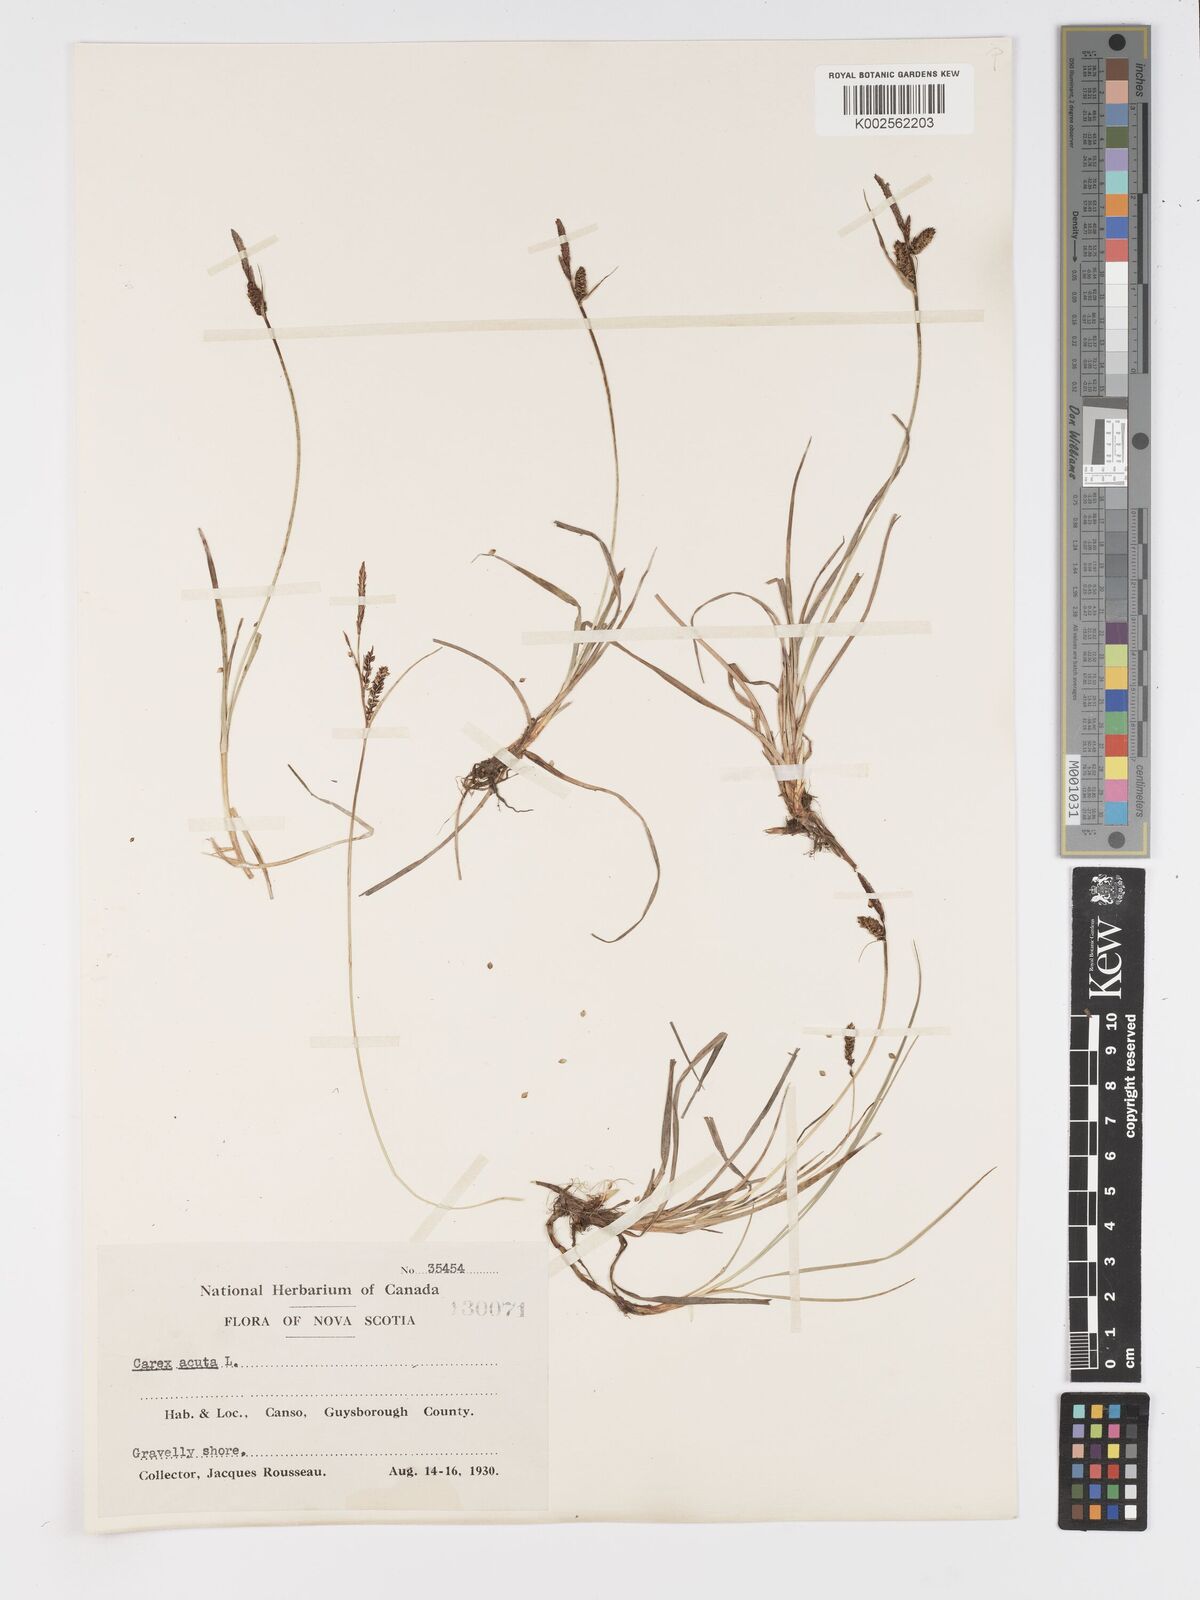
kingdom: Plantae
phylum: Tracheophyta
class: Liliopsida
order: Poales
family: Cyperaceae
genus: Carex
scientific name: Carex nigra
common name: Common sedge
